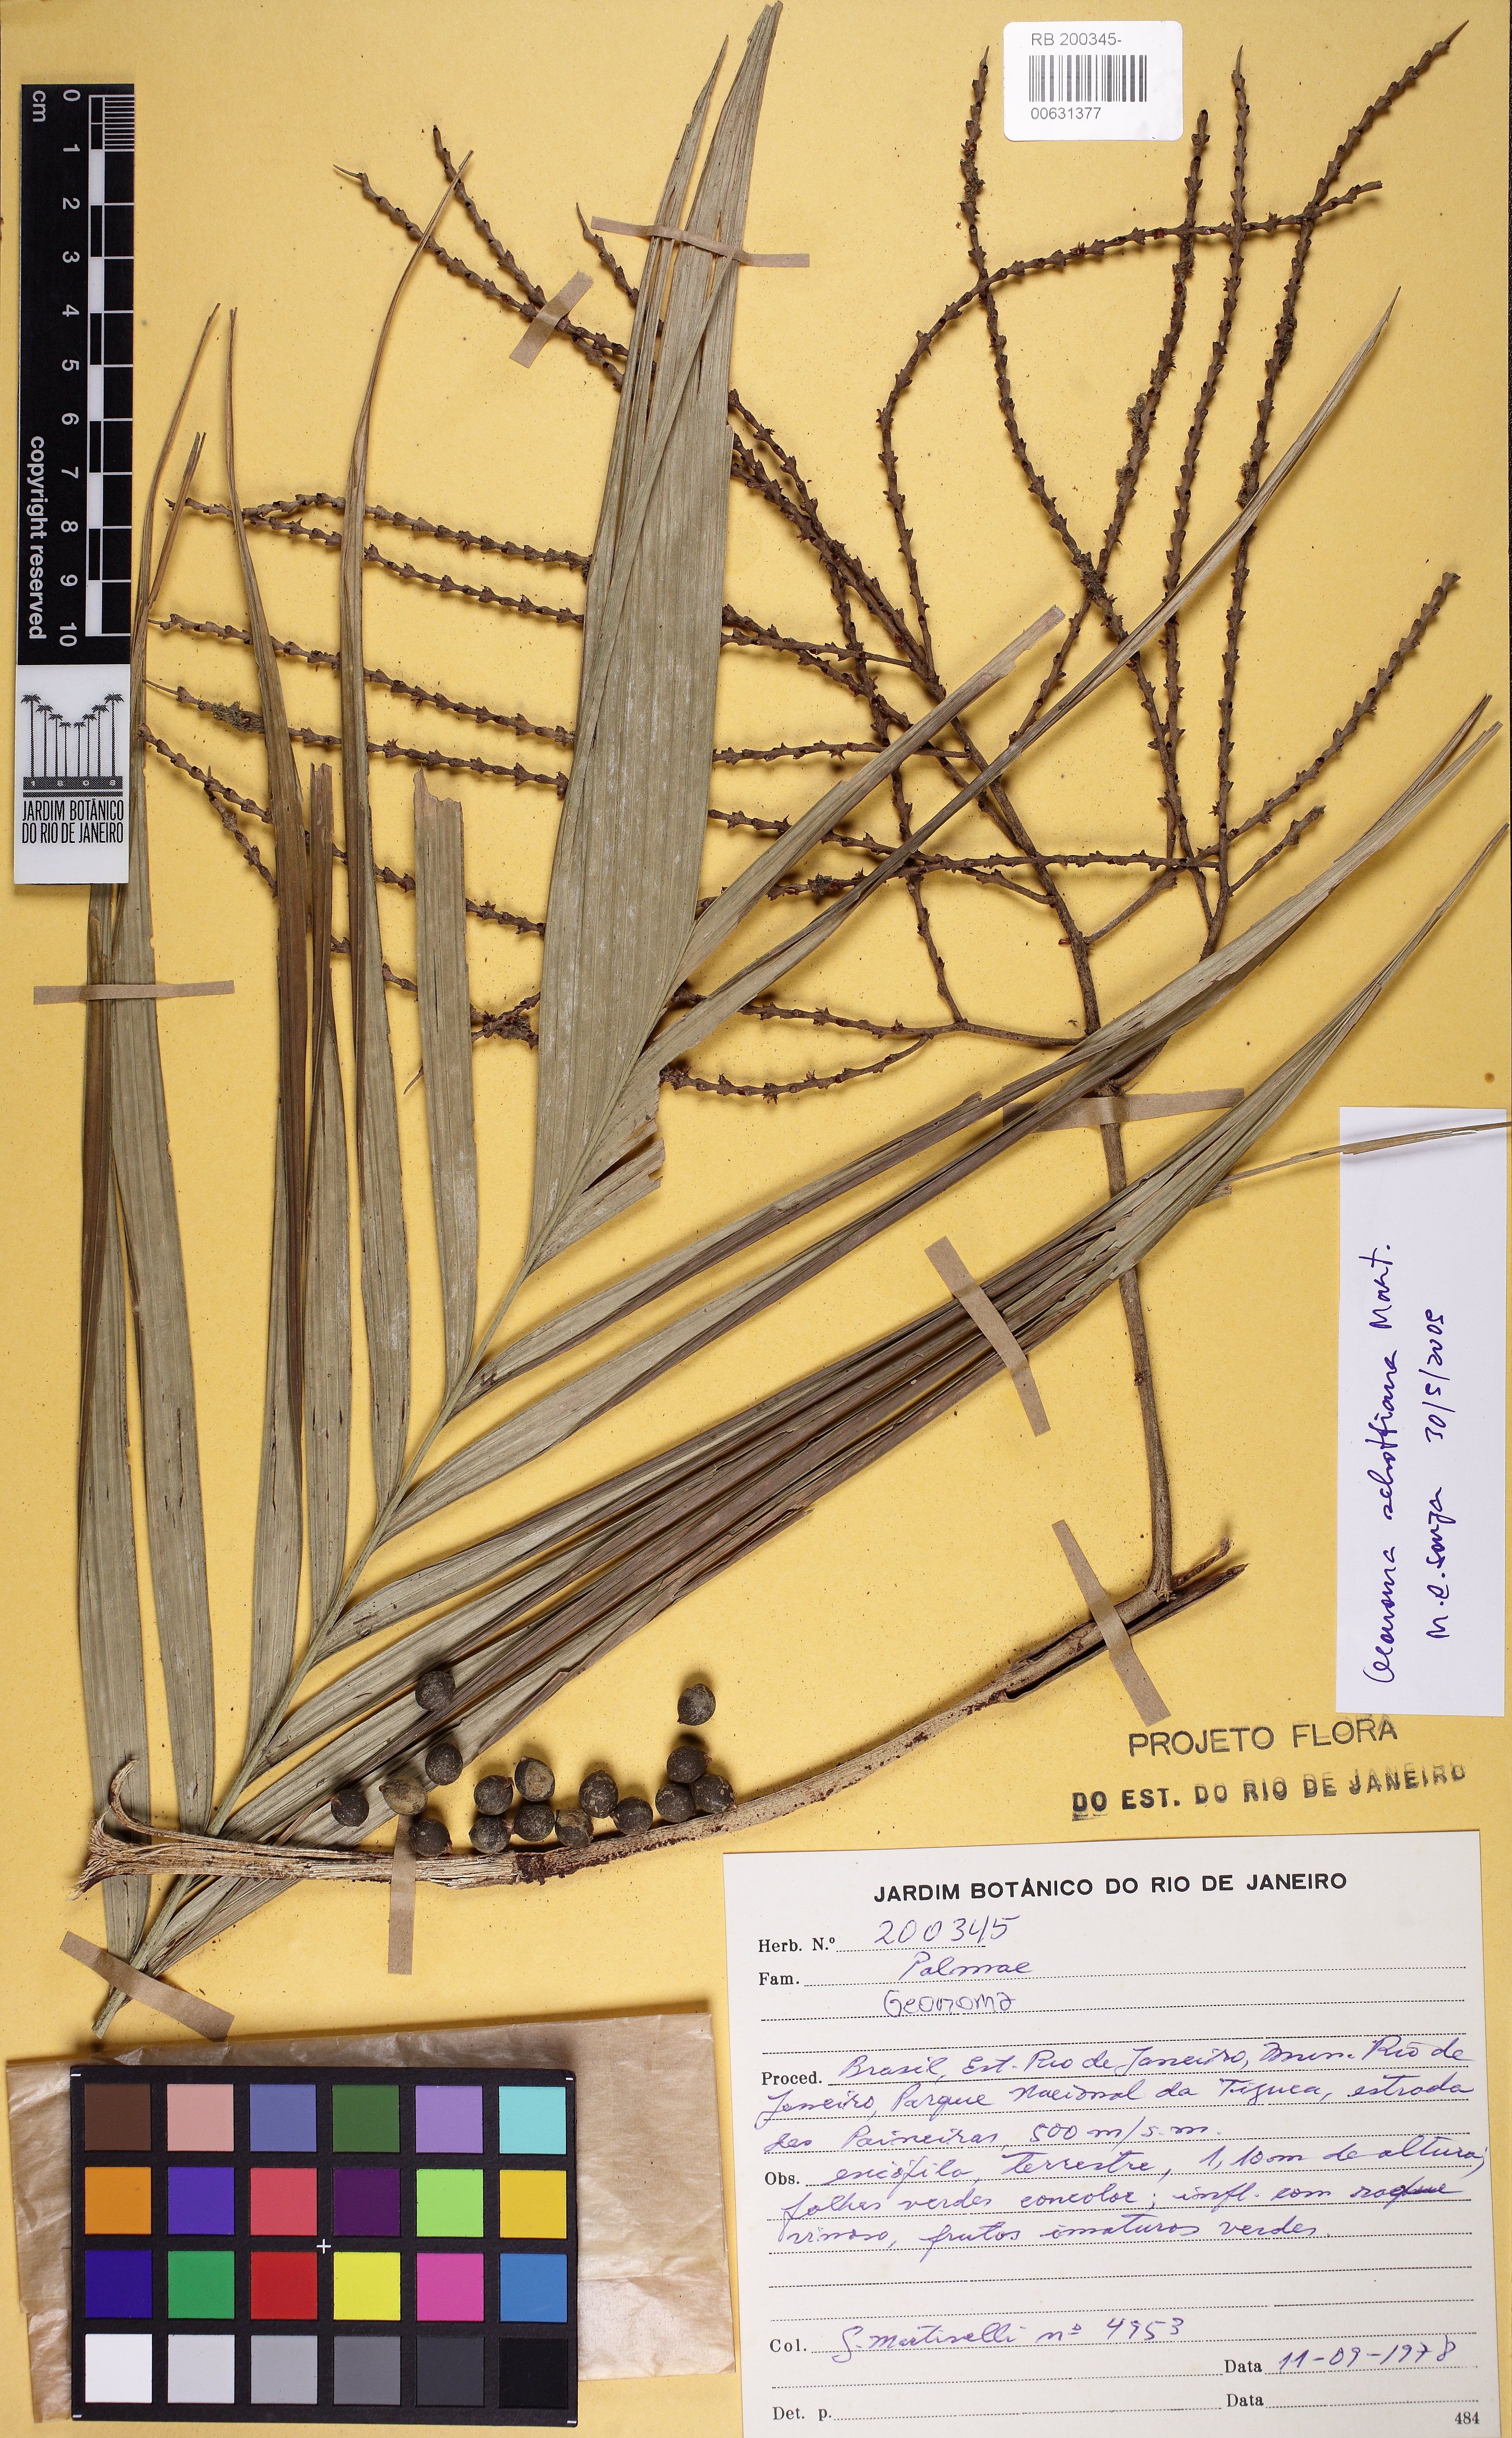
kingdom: Plantae
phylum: Tracheophyta
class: Liliopsida
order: Arecales
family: Arecaceae
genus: Geonoma
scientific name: Geonoma schottiana
